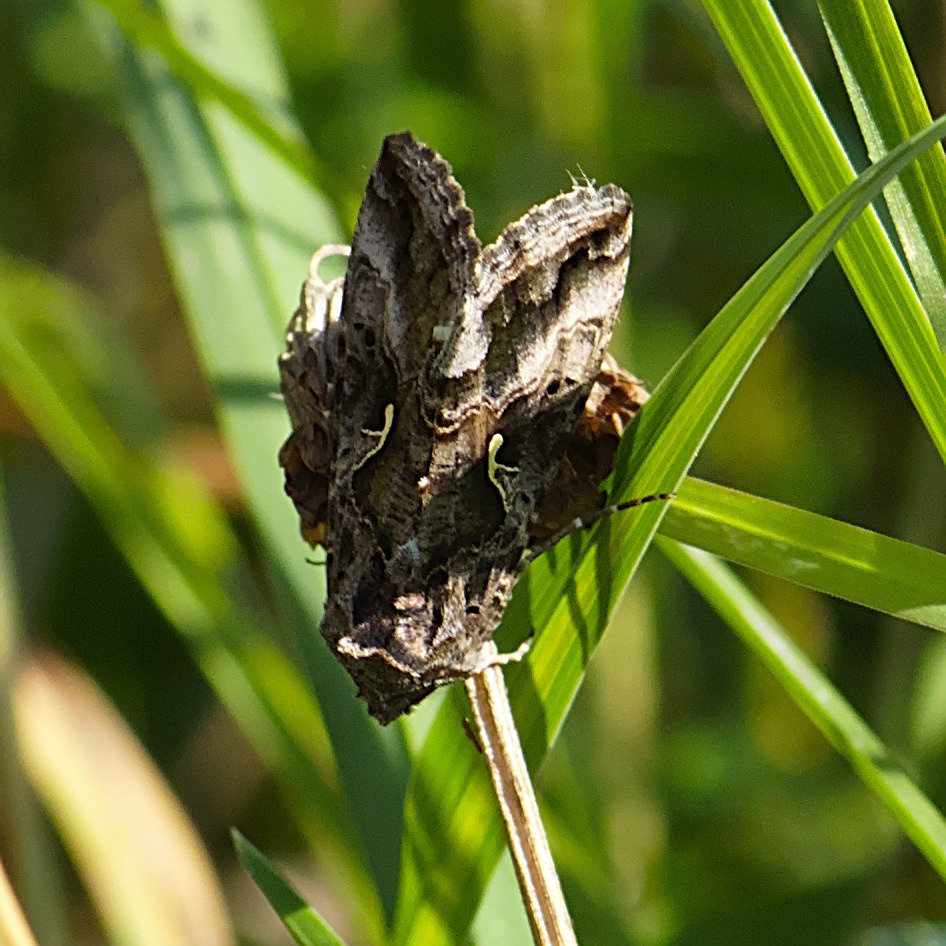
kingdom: Animalia
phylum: Arthropoda
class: Insecta
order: Lepidoptera
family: Noctuidae
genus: Autographa
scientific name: Autographa gamma
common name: Gammaugle
